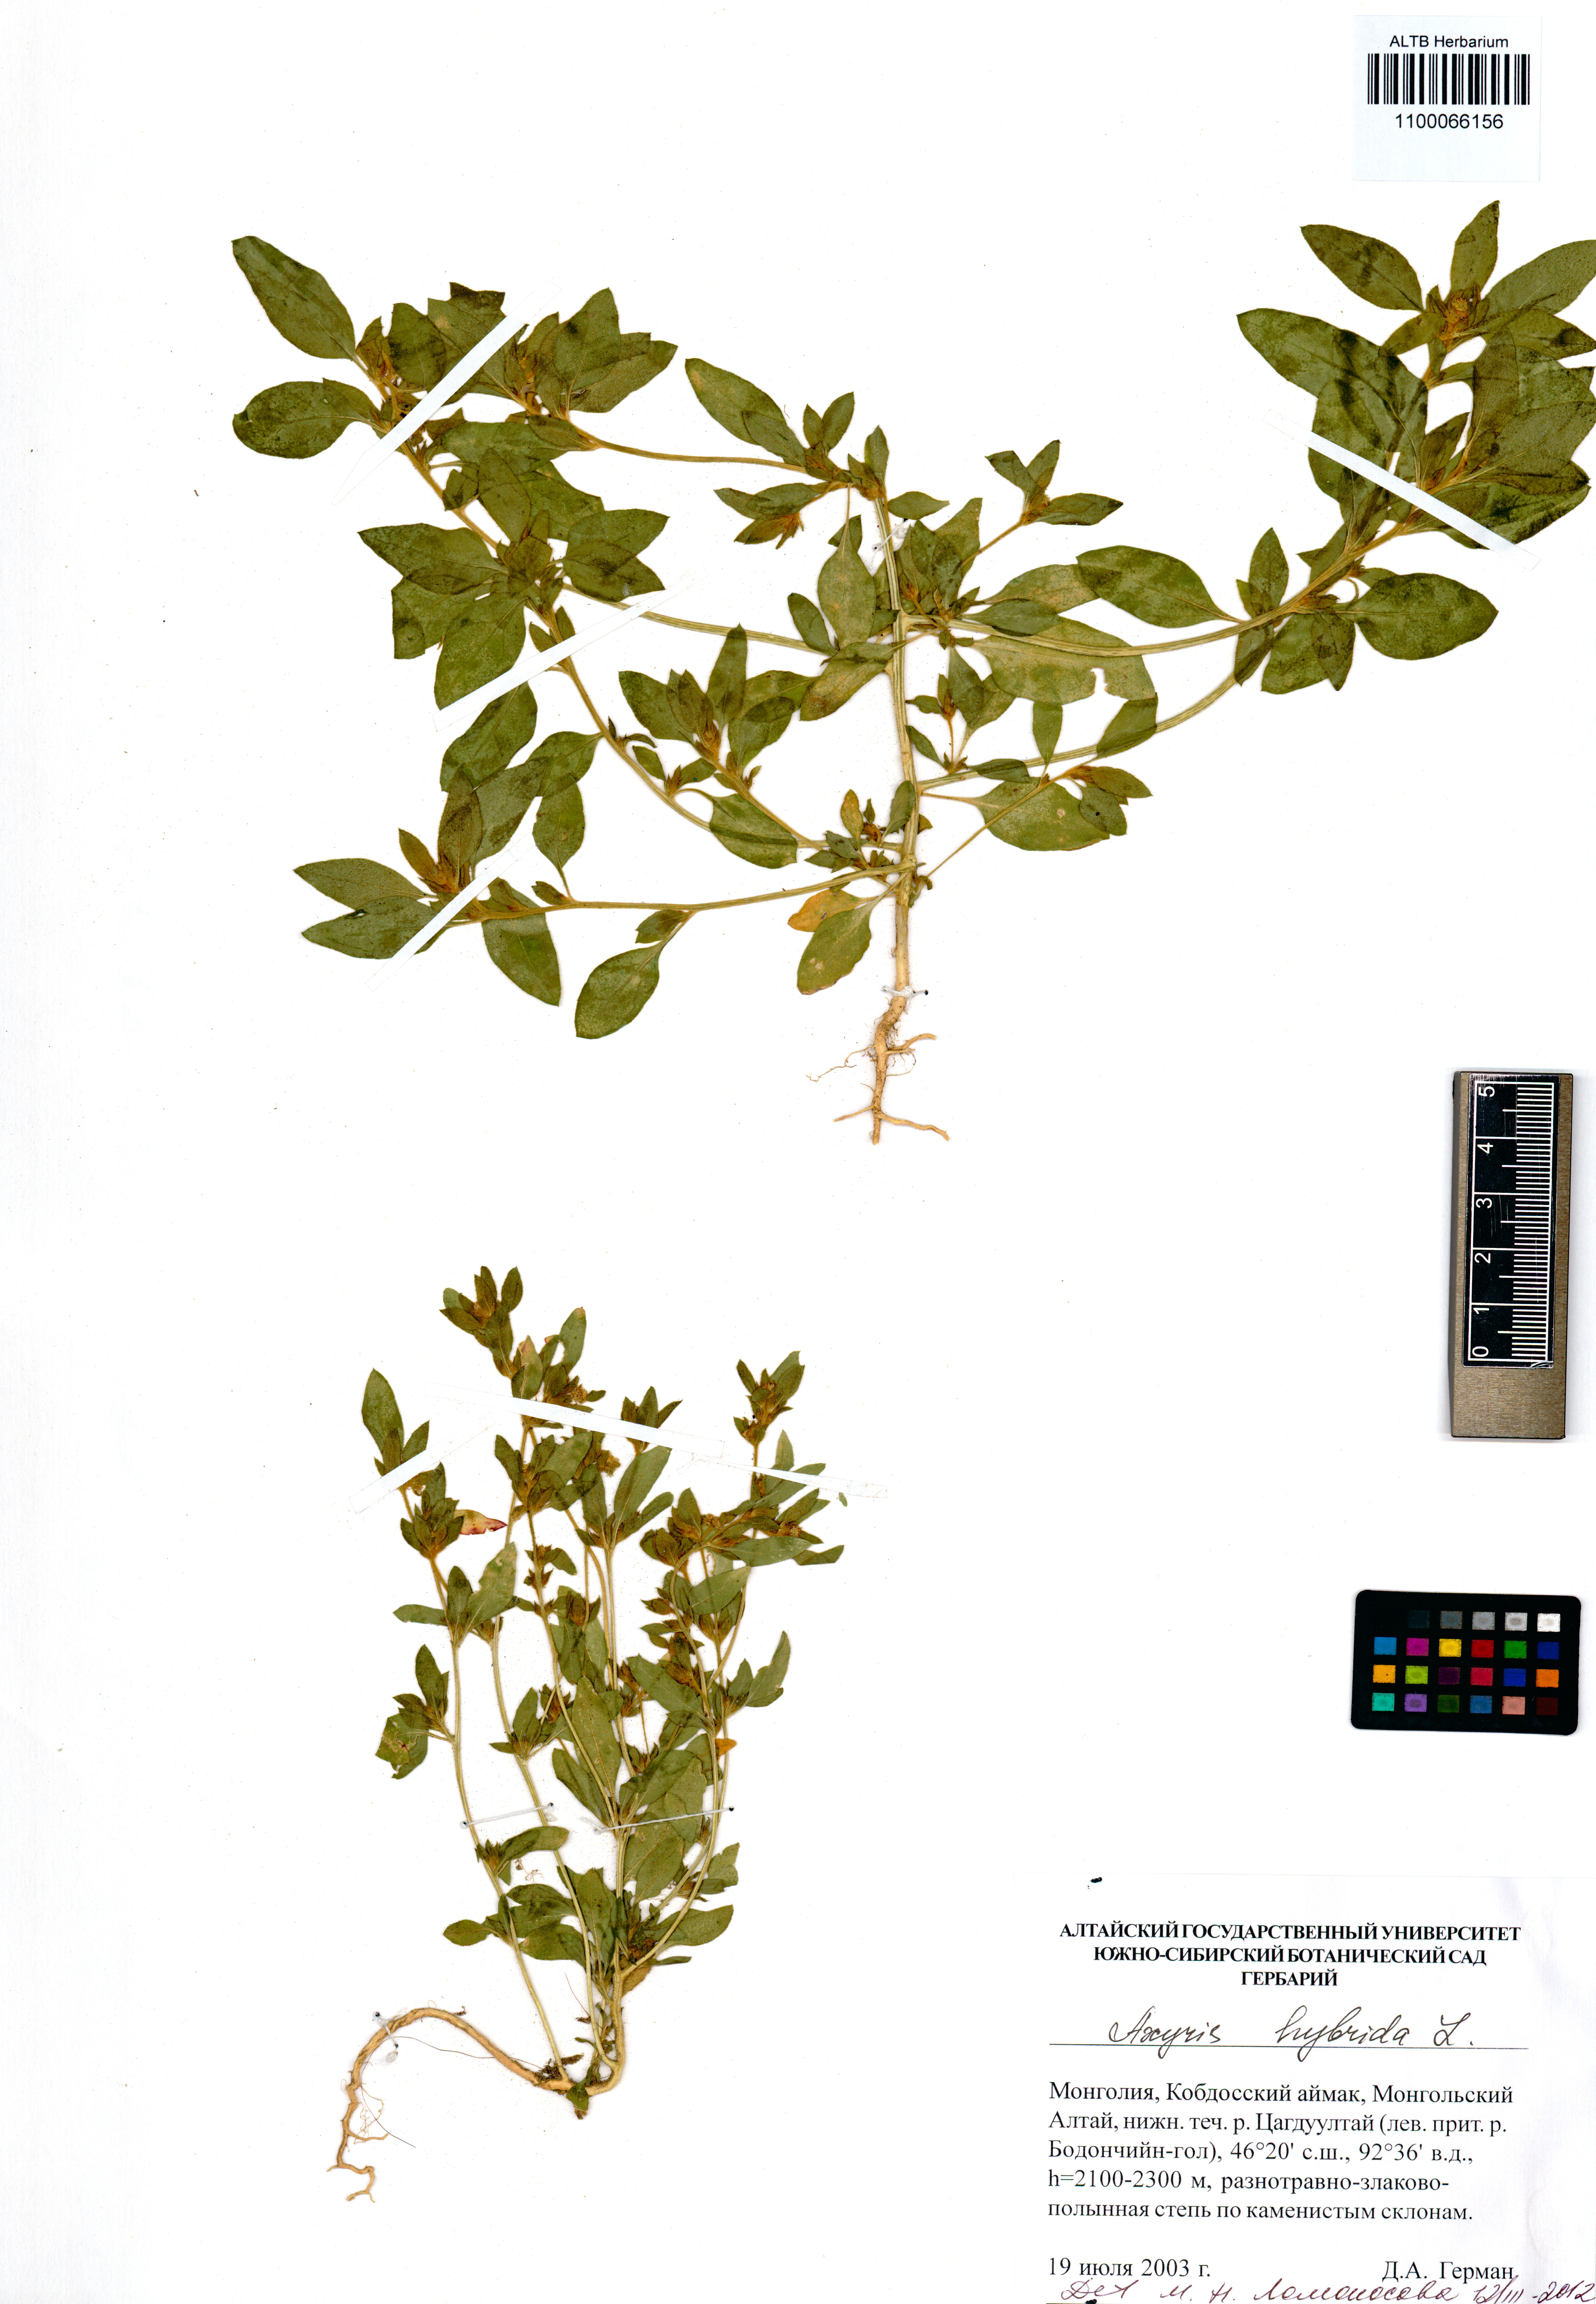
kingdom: Plantae
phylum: Tracheophyta
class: Magnoliopsida
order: Caryophyllales
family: Amaranthaceae
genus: Axyris
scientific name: Axyris hybrida
